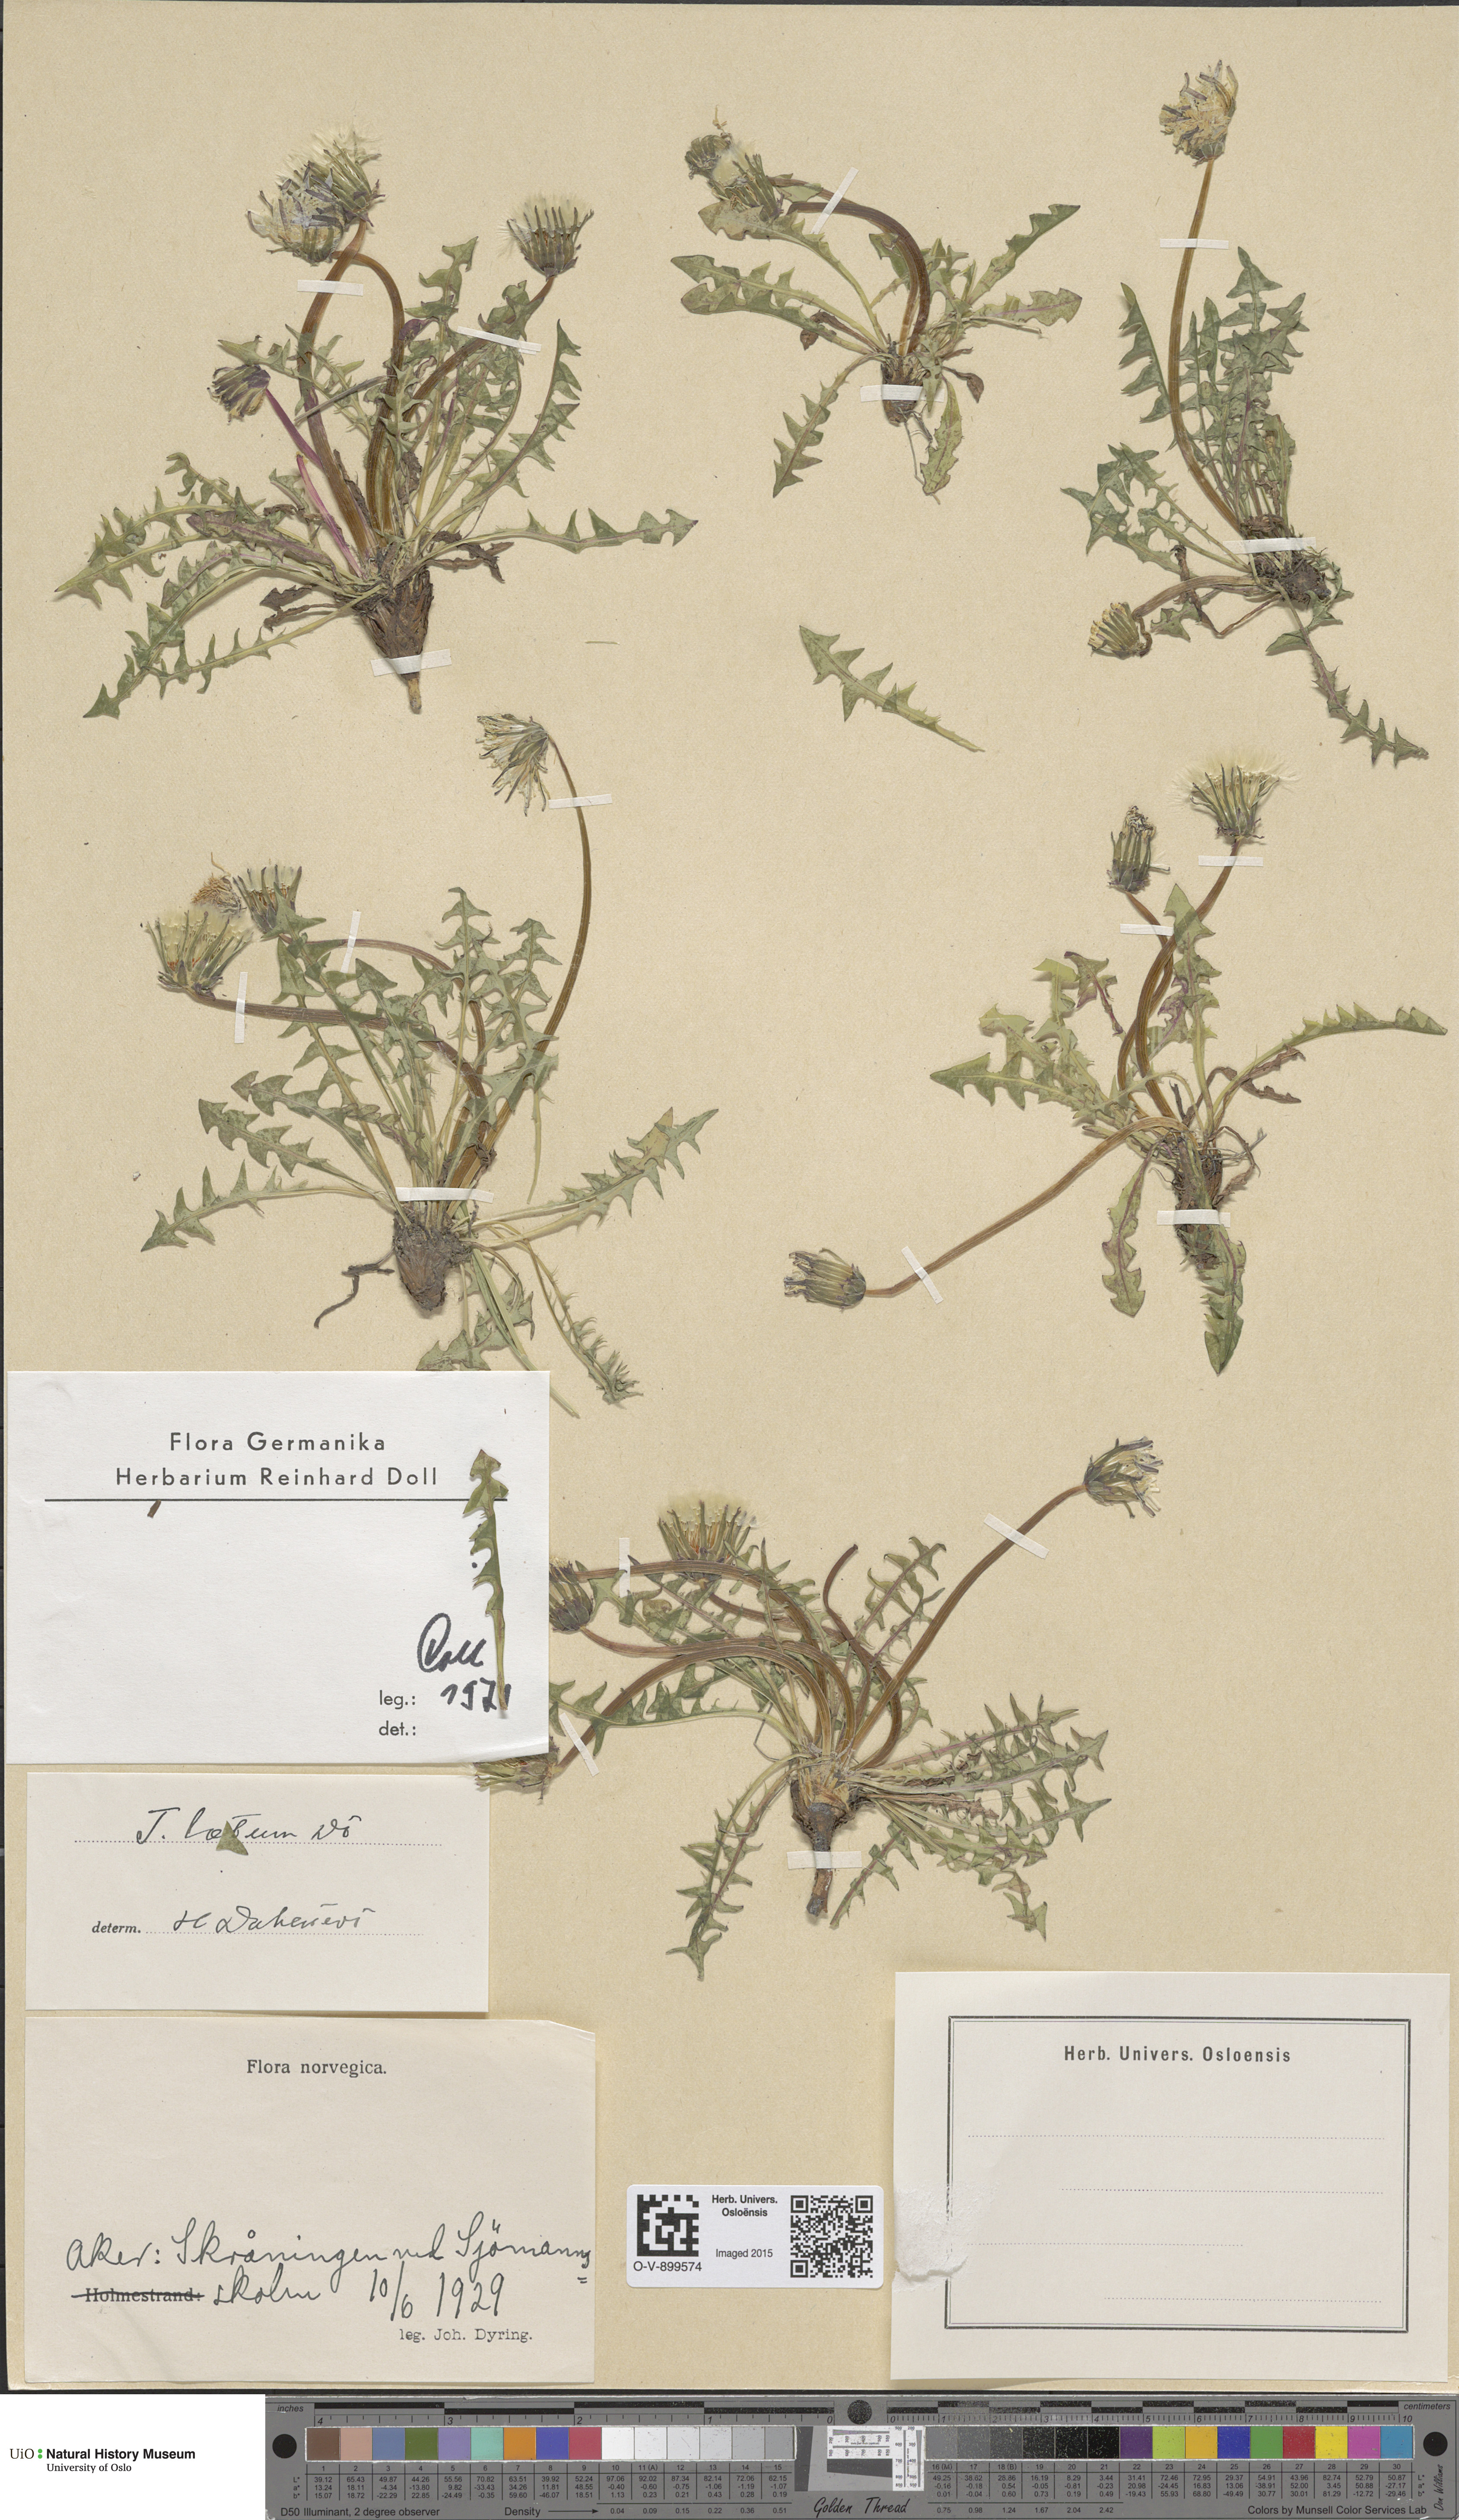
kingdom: Plantae
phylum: Tracheophyta
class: Magnoliopsida
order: Asterales
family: Asteraceae
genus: Taraxacum
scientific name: Taraxacum laetum
